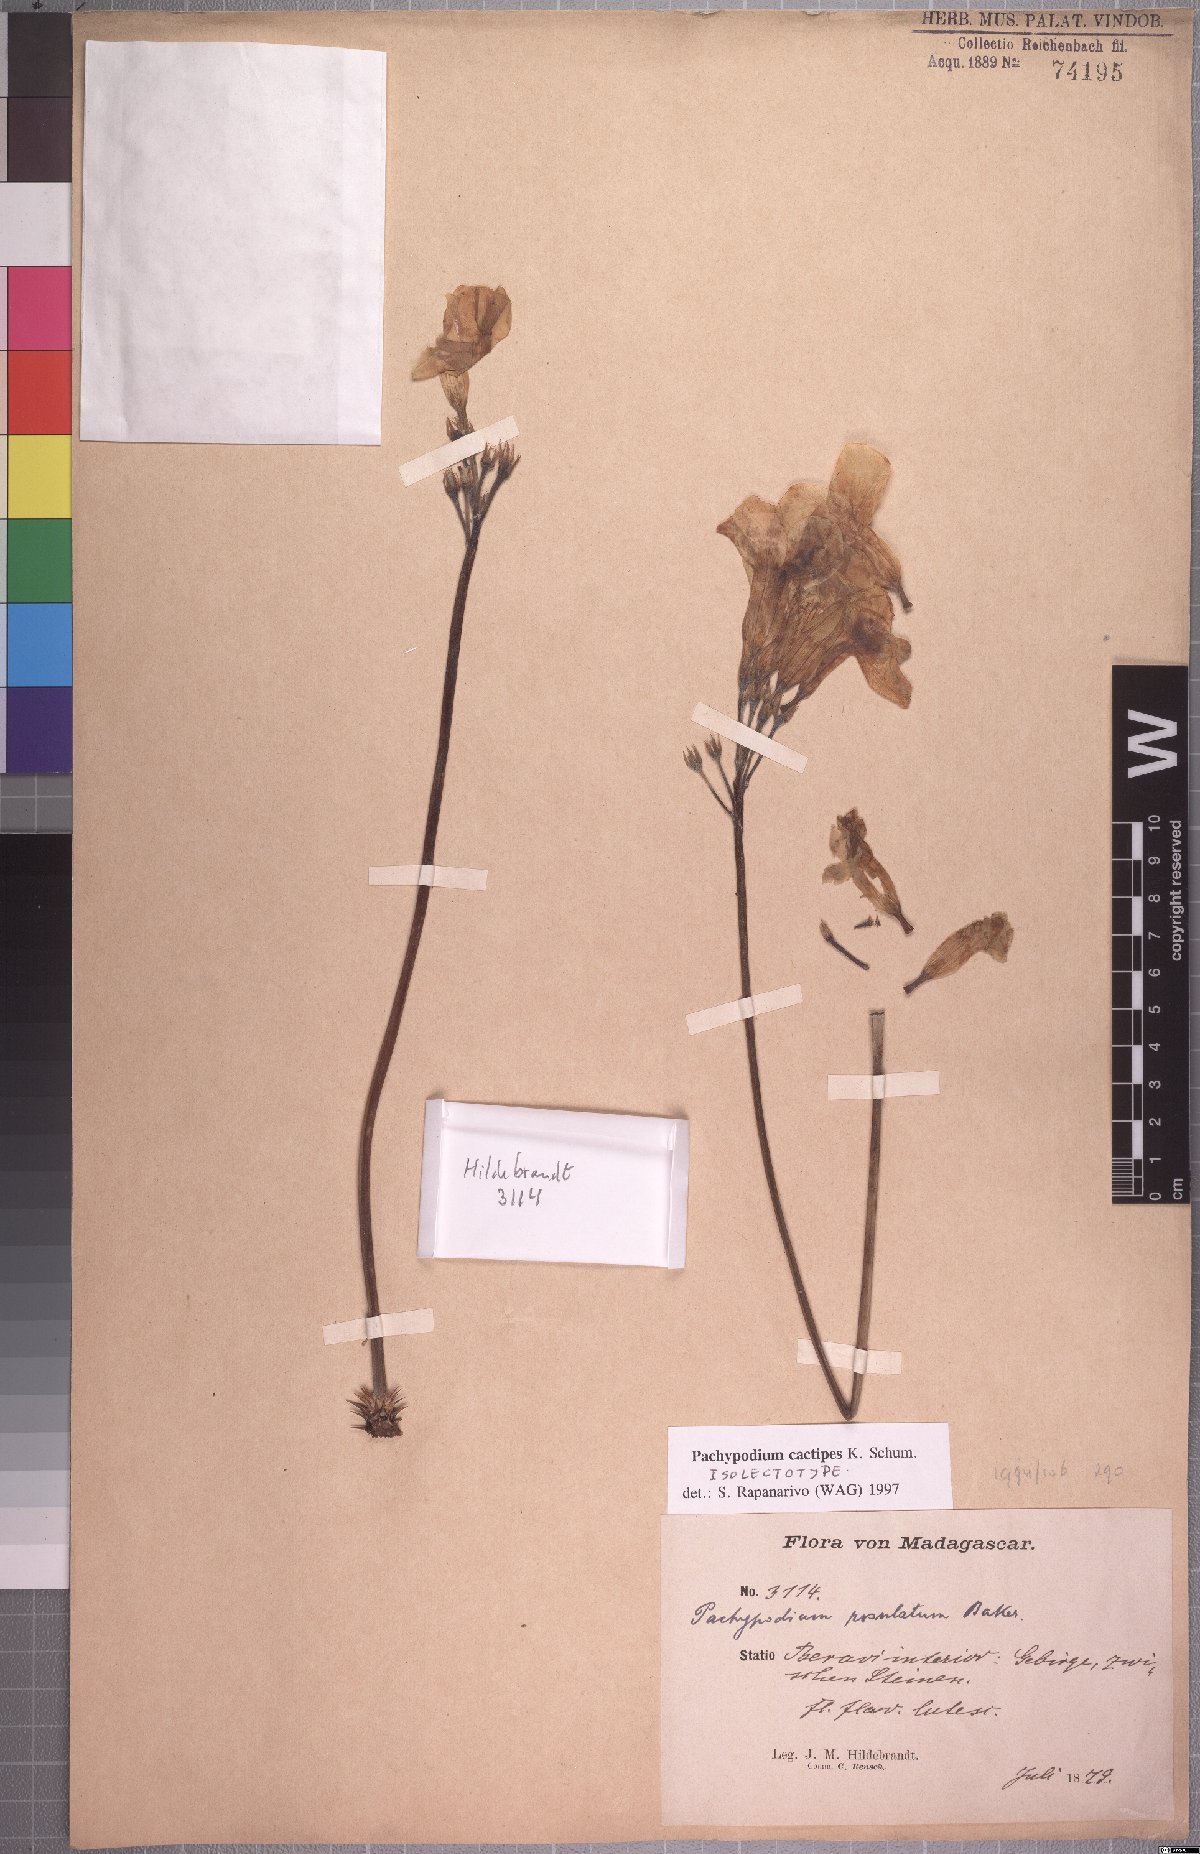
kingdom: Plantae
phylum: Tracheophyta
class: Magnoliopsida
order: Gentianales
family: Apocynaceae
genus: Pachypodium
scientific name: Pachypodium cactipes
